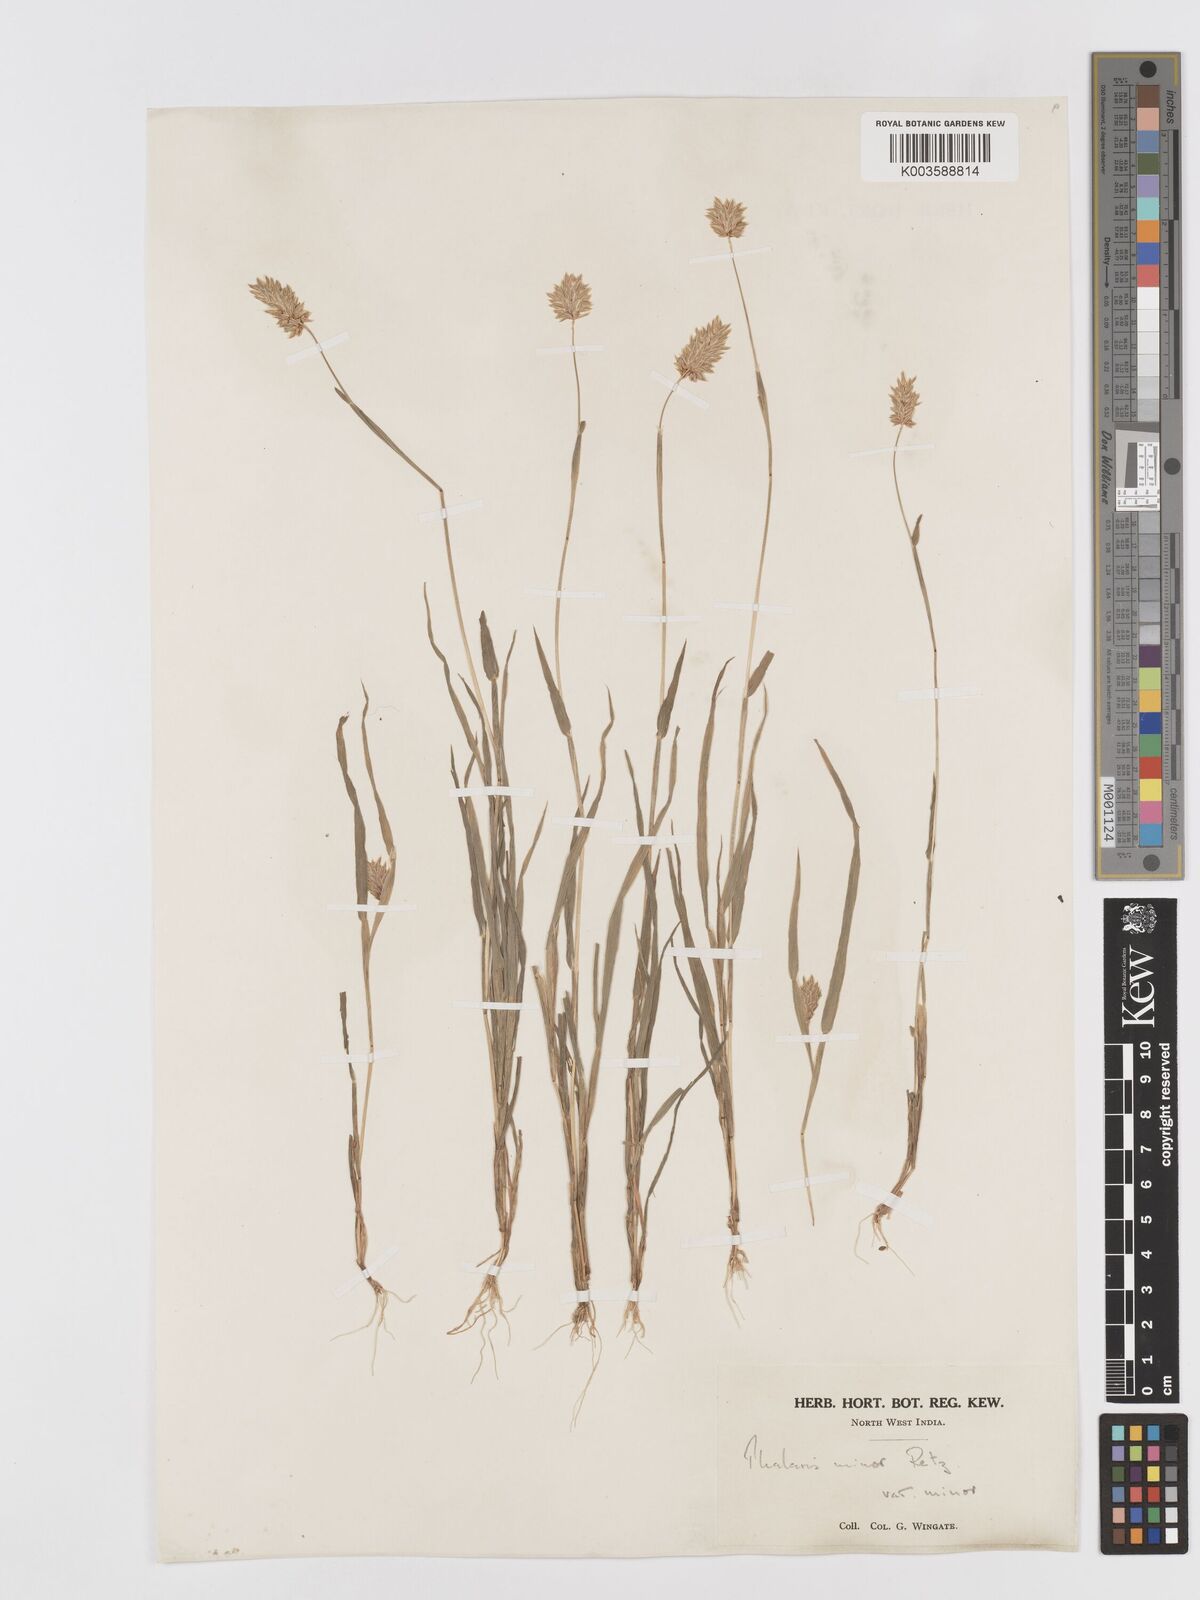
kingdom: Plantae
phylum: Tracheophyta
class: Liliopsida
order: Poales
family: Poaceae
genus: Phalaris
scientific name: Phalaris minor
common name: Littleseed canarygrass
